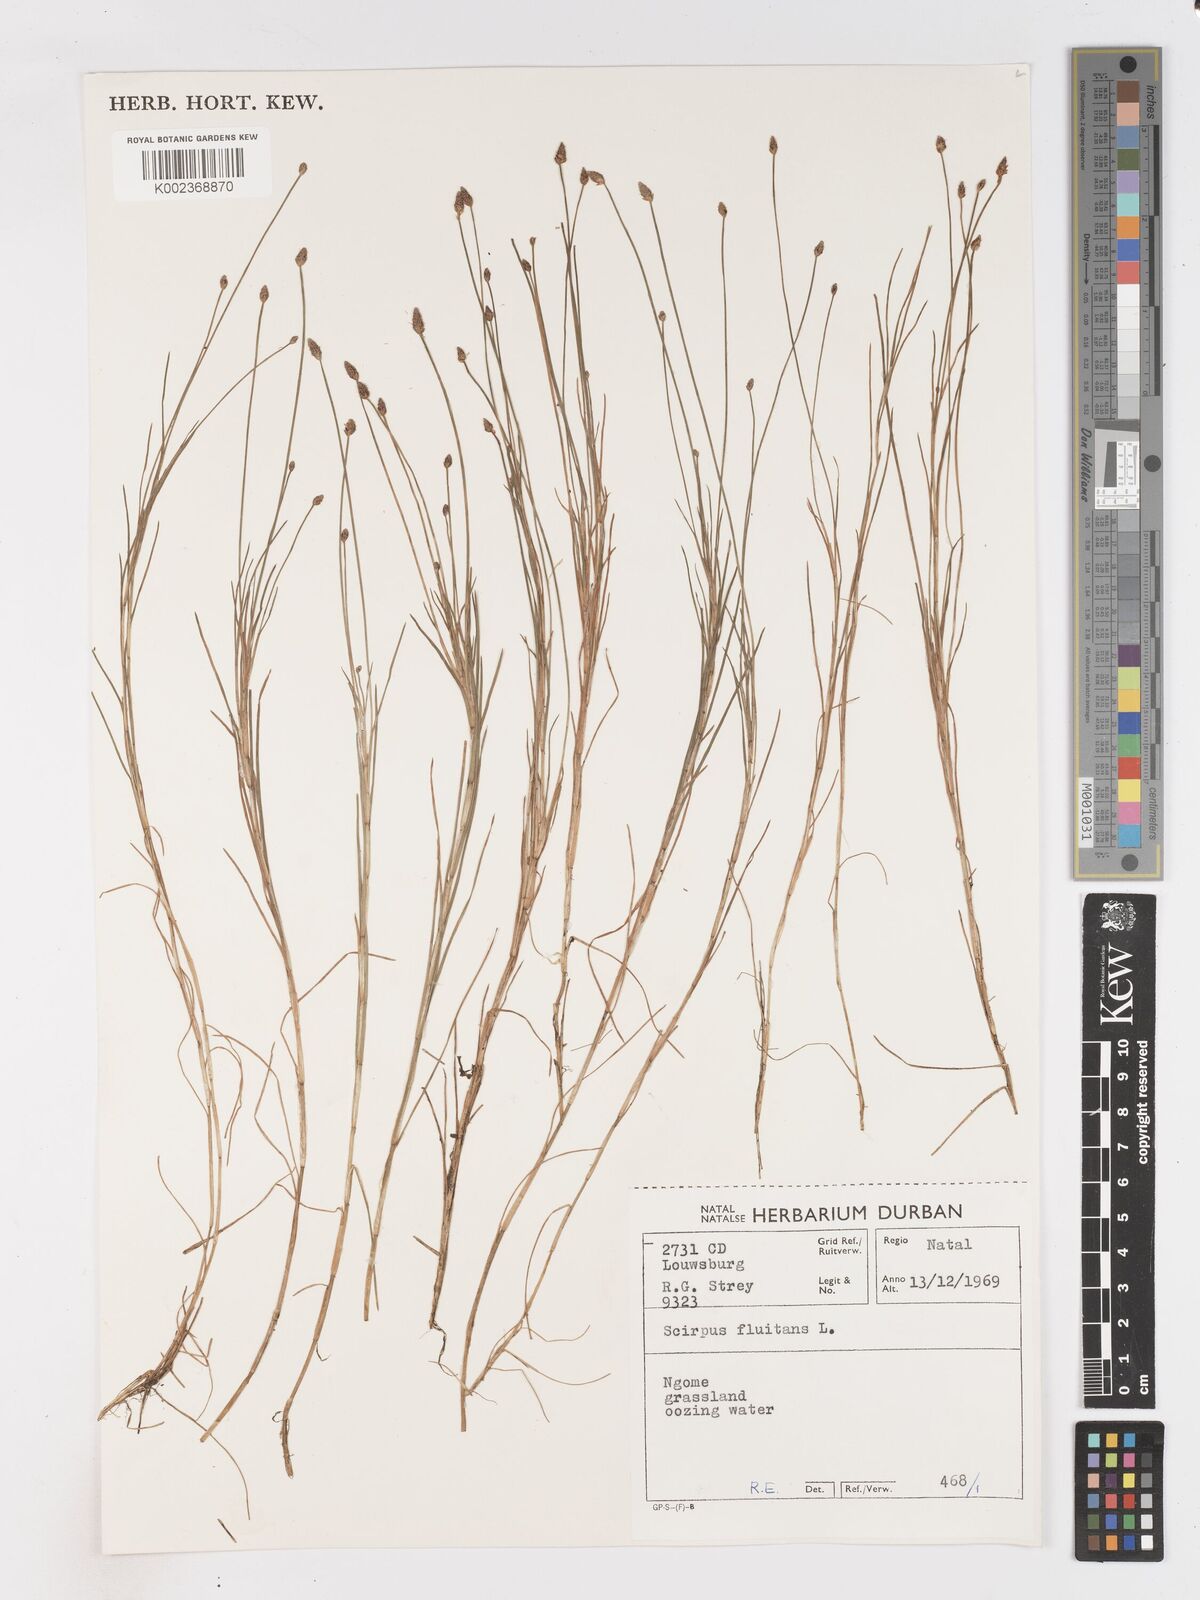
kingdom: Plantae
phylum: Tracheophyta
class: Liliopsida
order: Poales
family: Cyperaceae
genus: Isolepis
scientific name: Isolepis fluitans
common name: Floating club-rush
